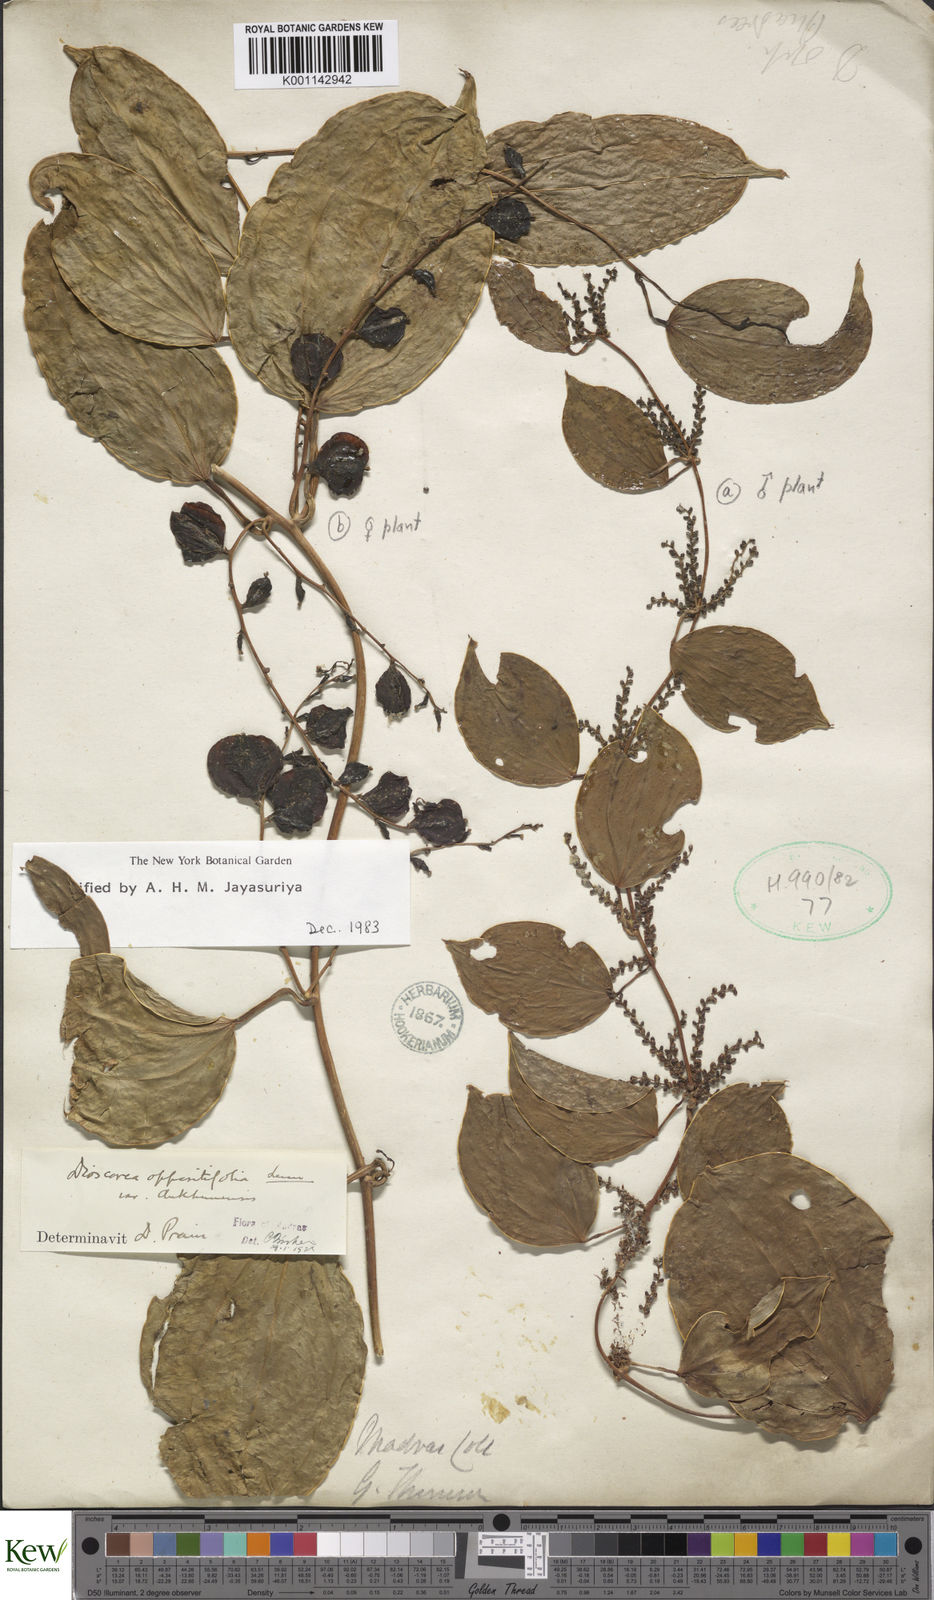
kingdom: Plantae
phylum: Tracheophyta
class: Liliopsida
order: Dioscoreales
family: Dioscoreaceae
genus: Dioscorea
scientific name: Dioscorea oppositifolia
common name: Chinese yam
